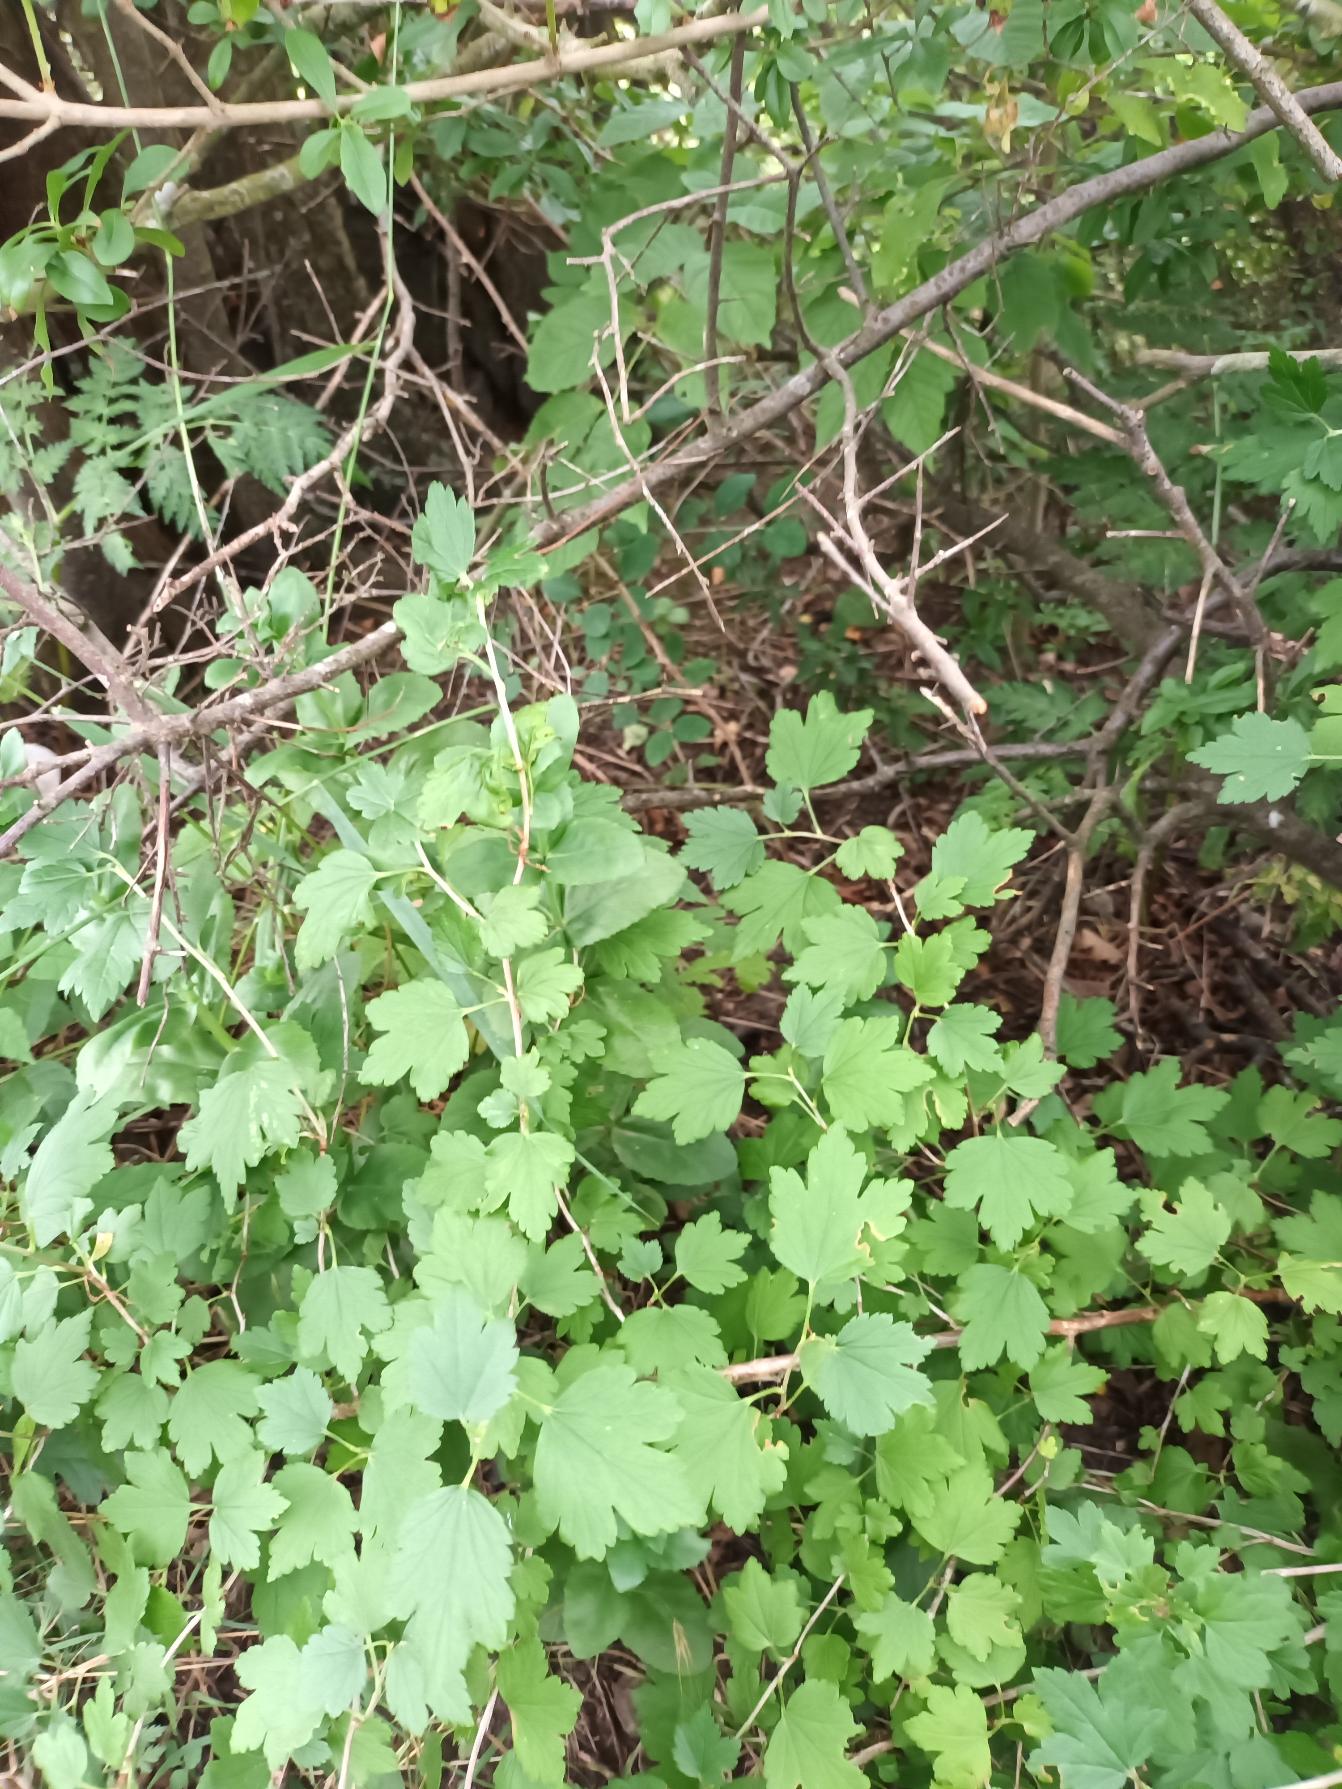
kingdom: Plantae
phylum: Tracheophyta
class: Magnoliopsida
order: Saxifragales
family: Grossulariaceae
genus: Ribes
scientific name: Ribes alpinum
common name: Fjeld-ribs
